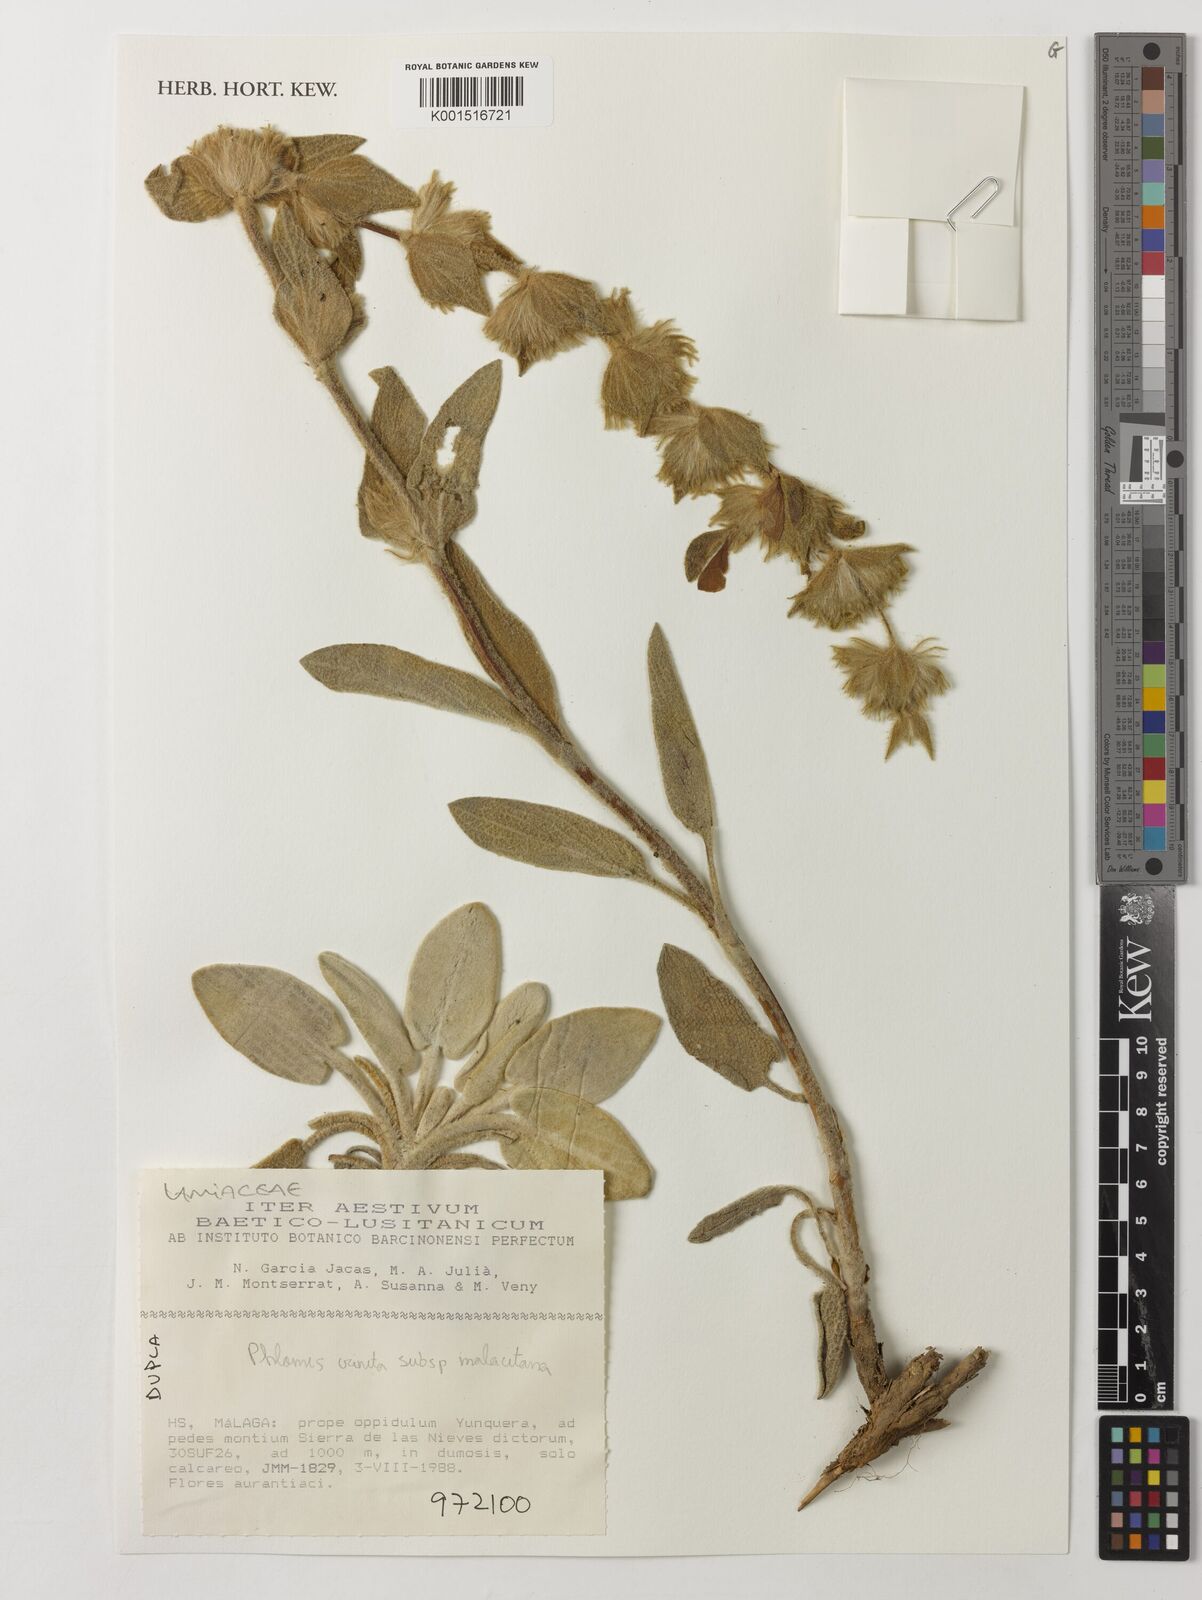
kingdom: Plantae
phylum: Tracheophyta
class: Magnoliopsida
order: Lamiales
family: Lamiaceae
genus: Phlomis
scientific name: Phlomis crinita
